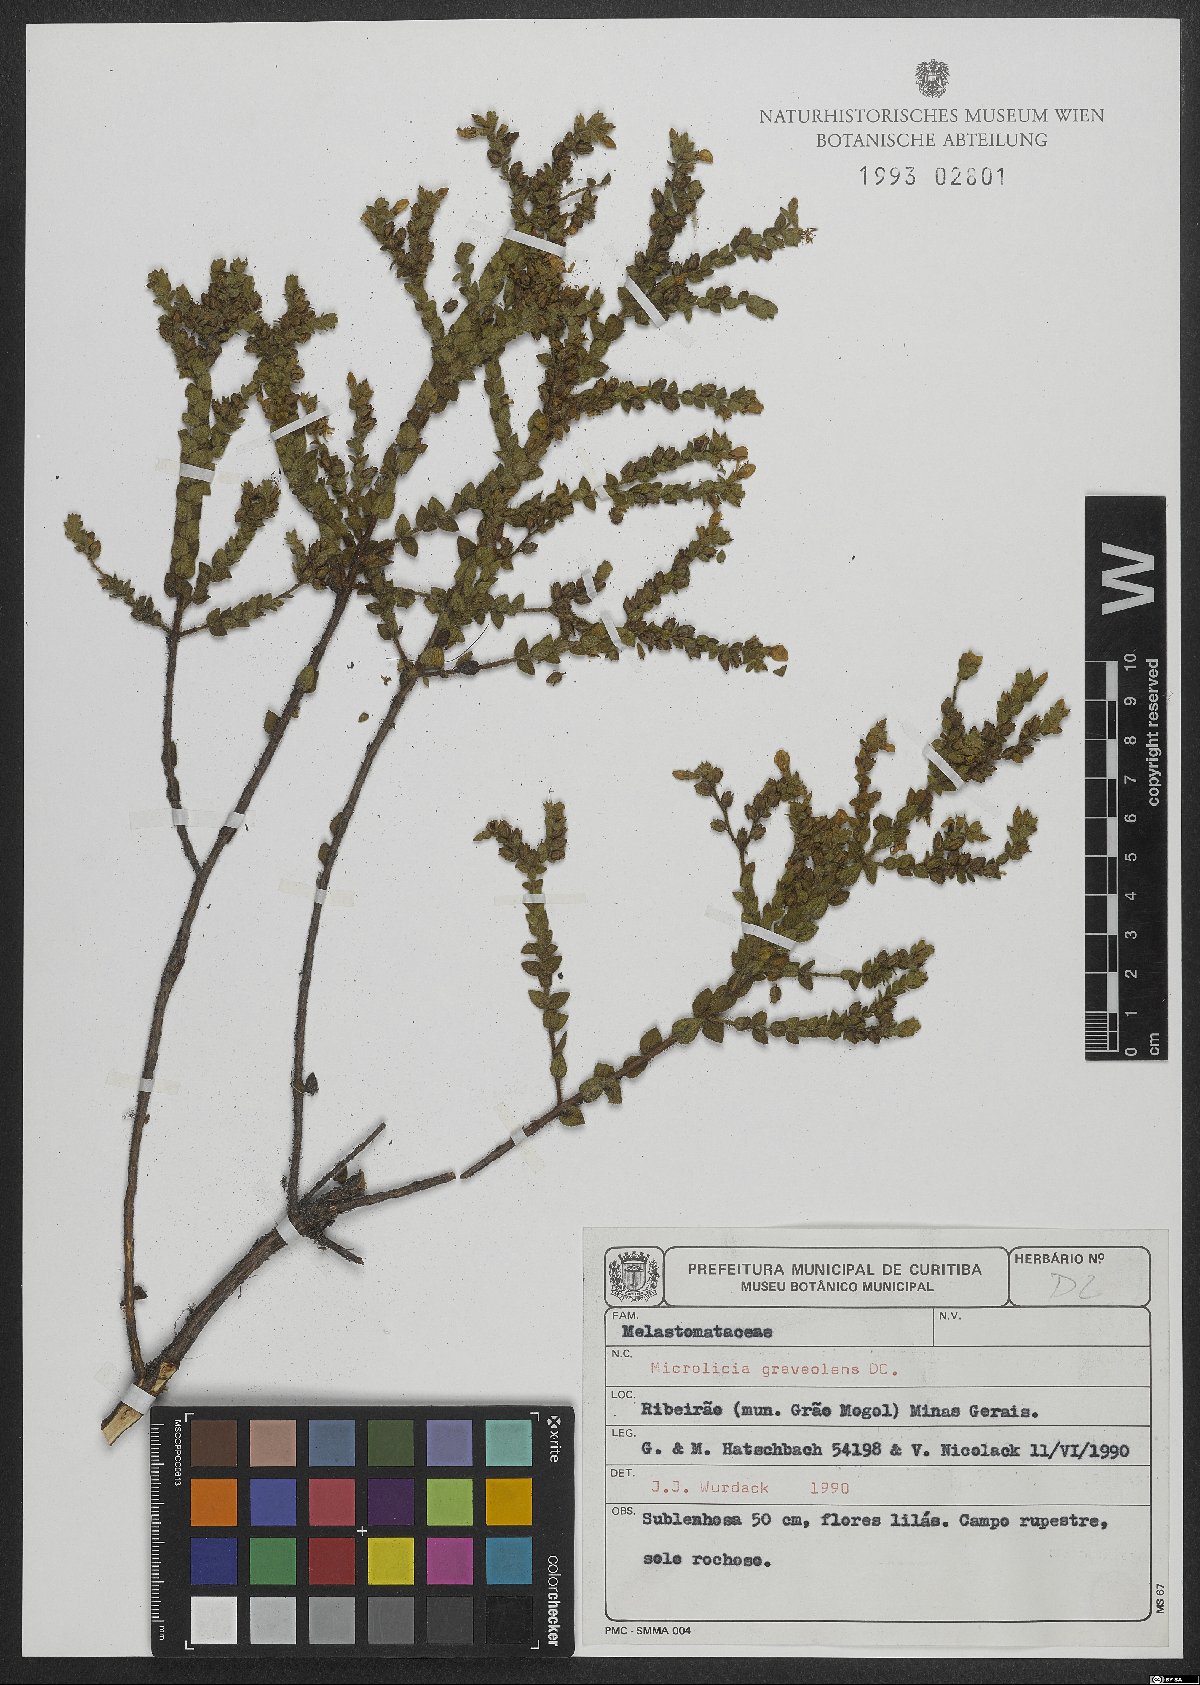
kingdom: Plantae
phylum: Tracheophyta
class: Magnoliopsida
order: Myrtales
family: Melastomataceae
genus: Microlicia
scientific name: Microlicia graveolens
